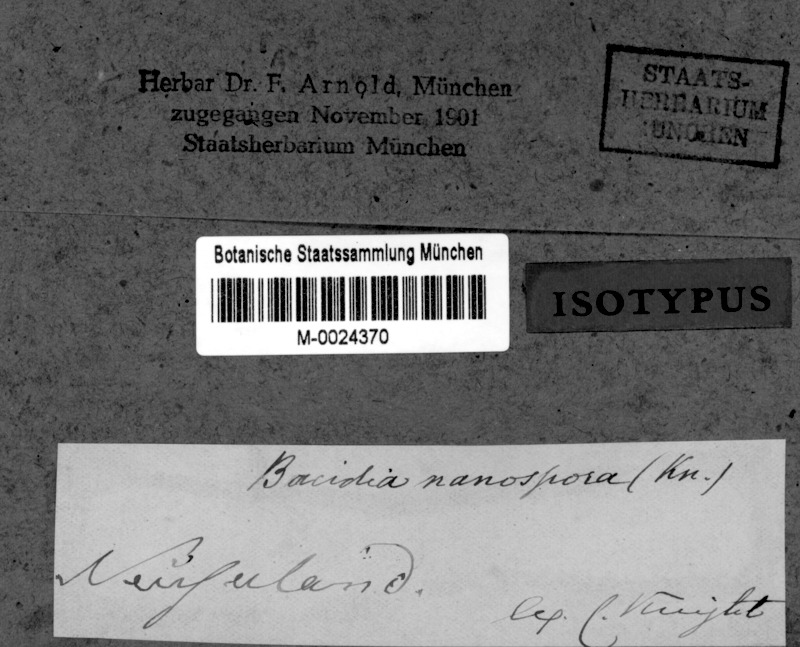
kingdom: Fungi
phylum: Ascomycota
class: Lecanoromycetes
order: Lecanorales
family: Ramalinaceae
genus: Bacidia
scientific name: Bacidia laurocerasi
